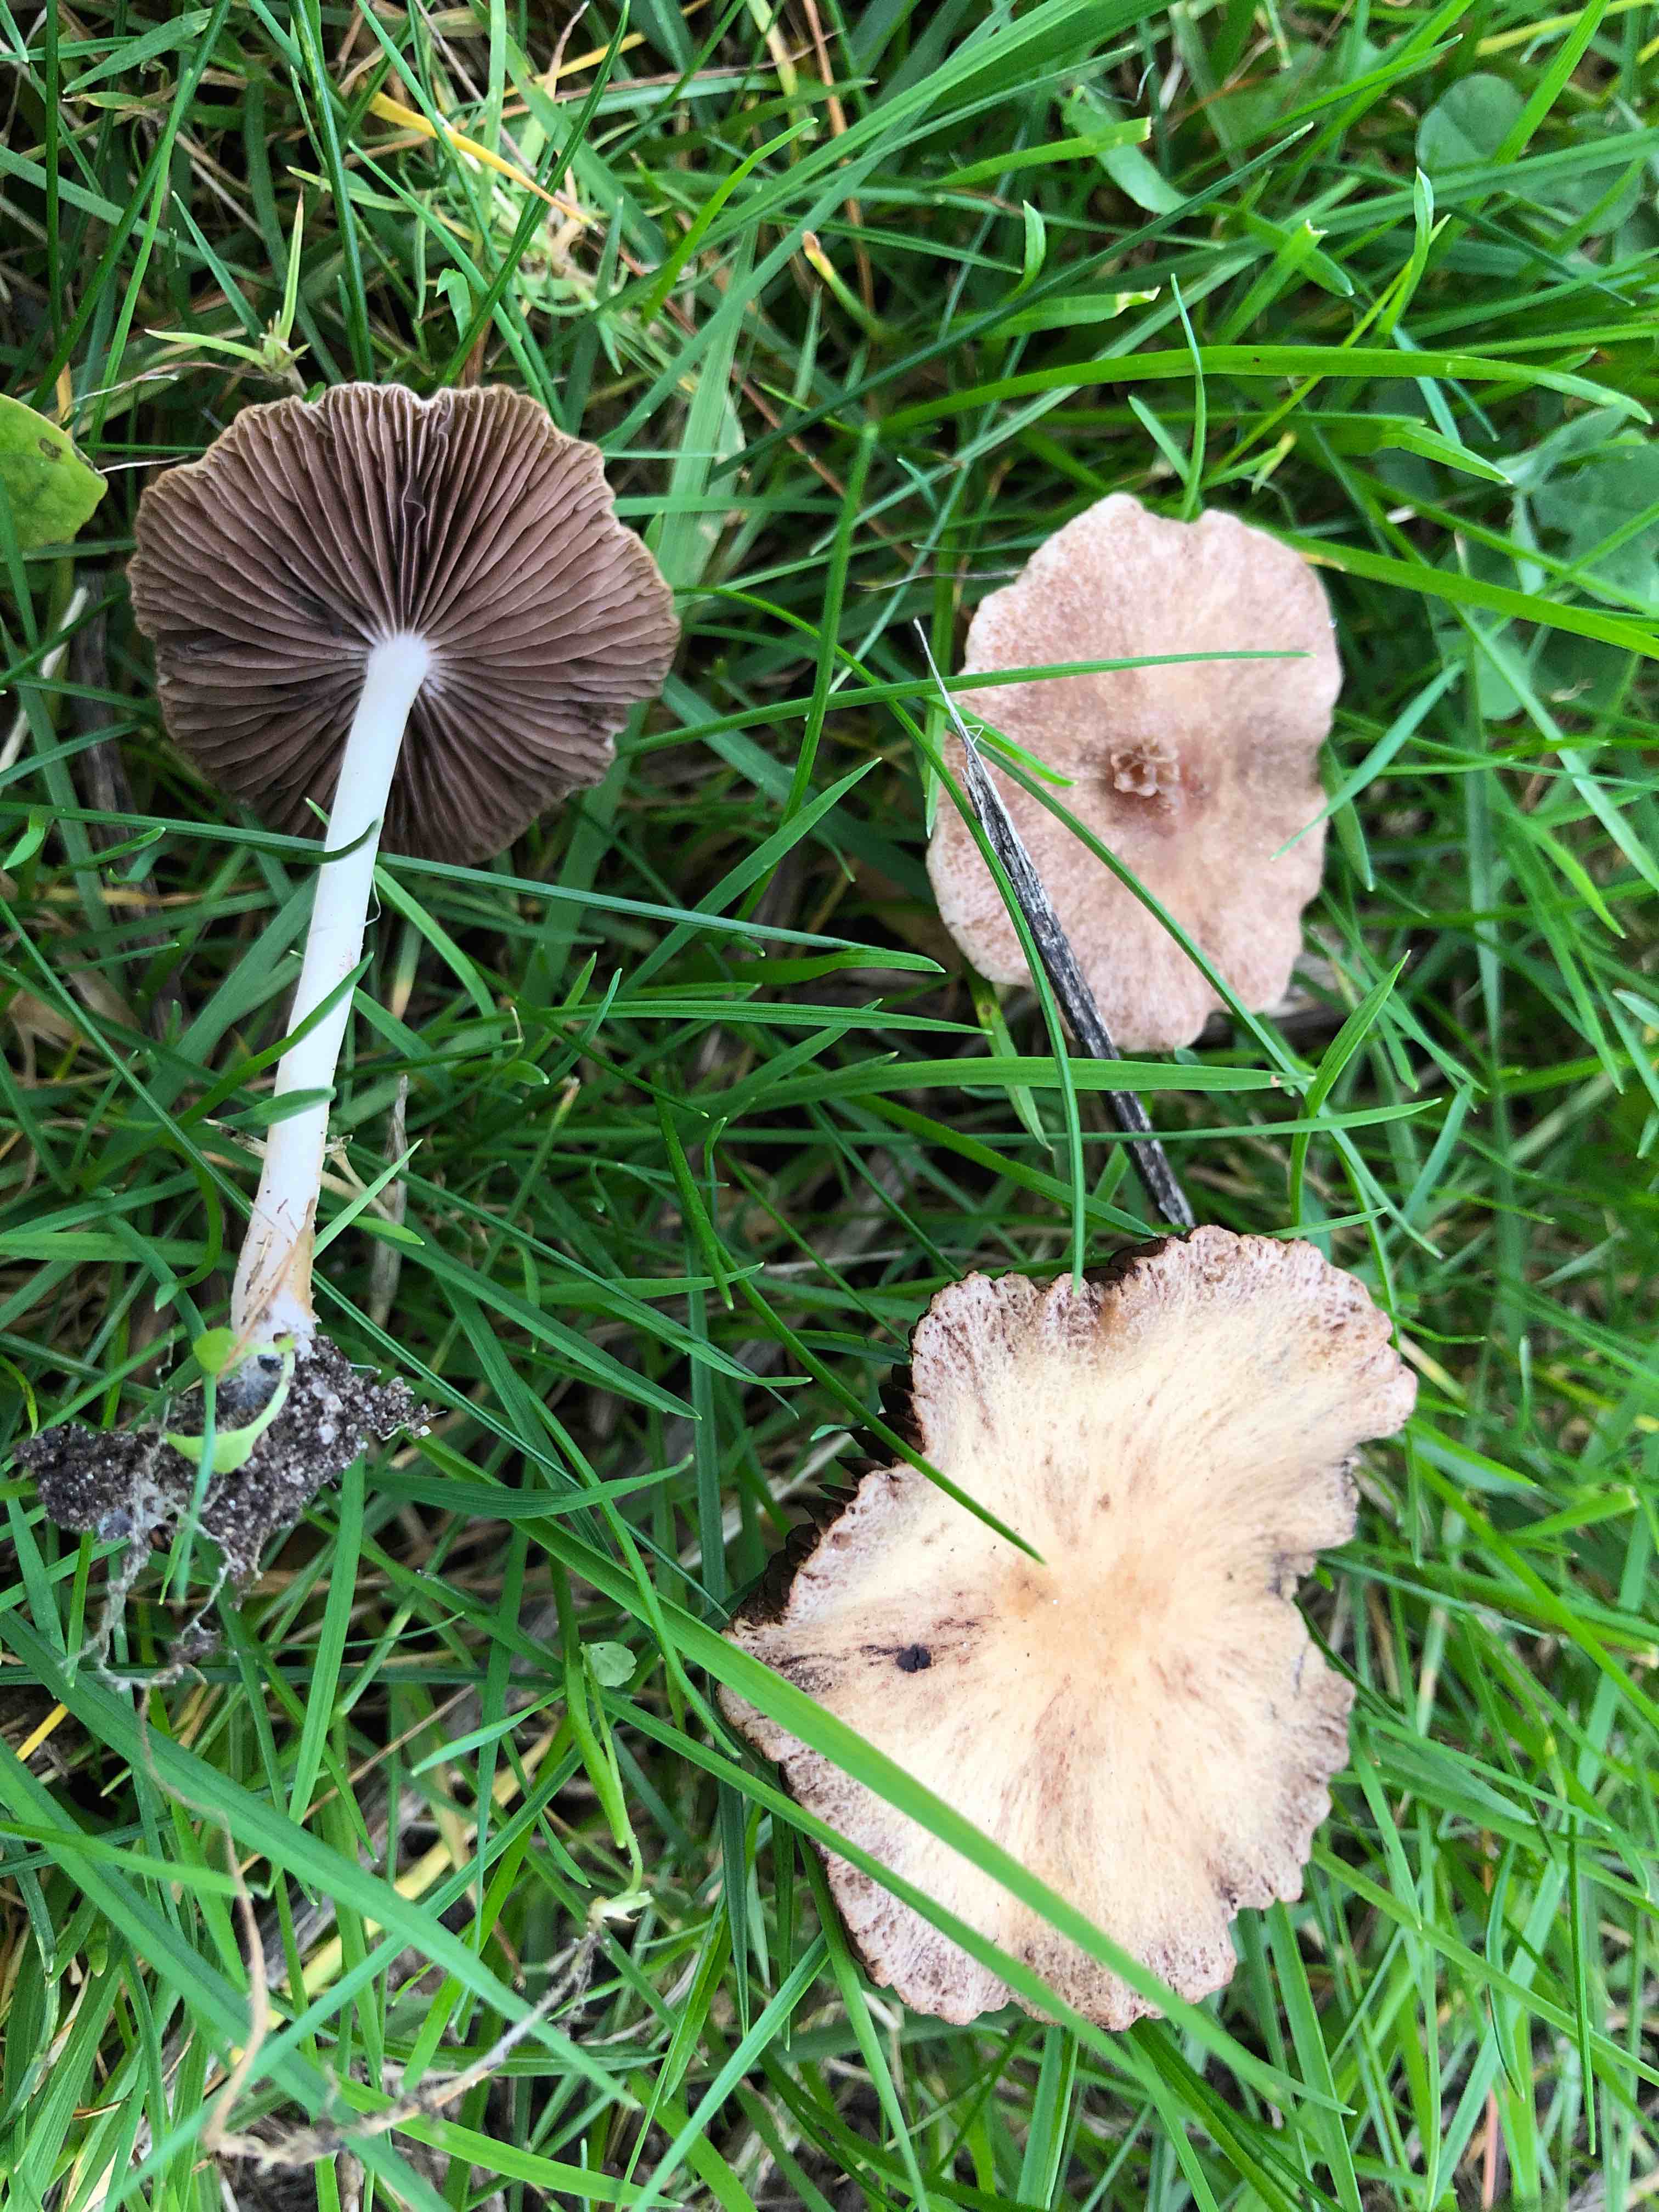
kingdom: Fungi
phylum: Basidiomycota
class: Agaricomycetes
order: Agaricales
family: Psathyrellaceae
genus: Psathyrella
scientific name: Psathyrella
